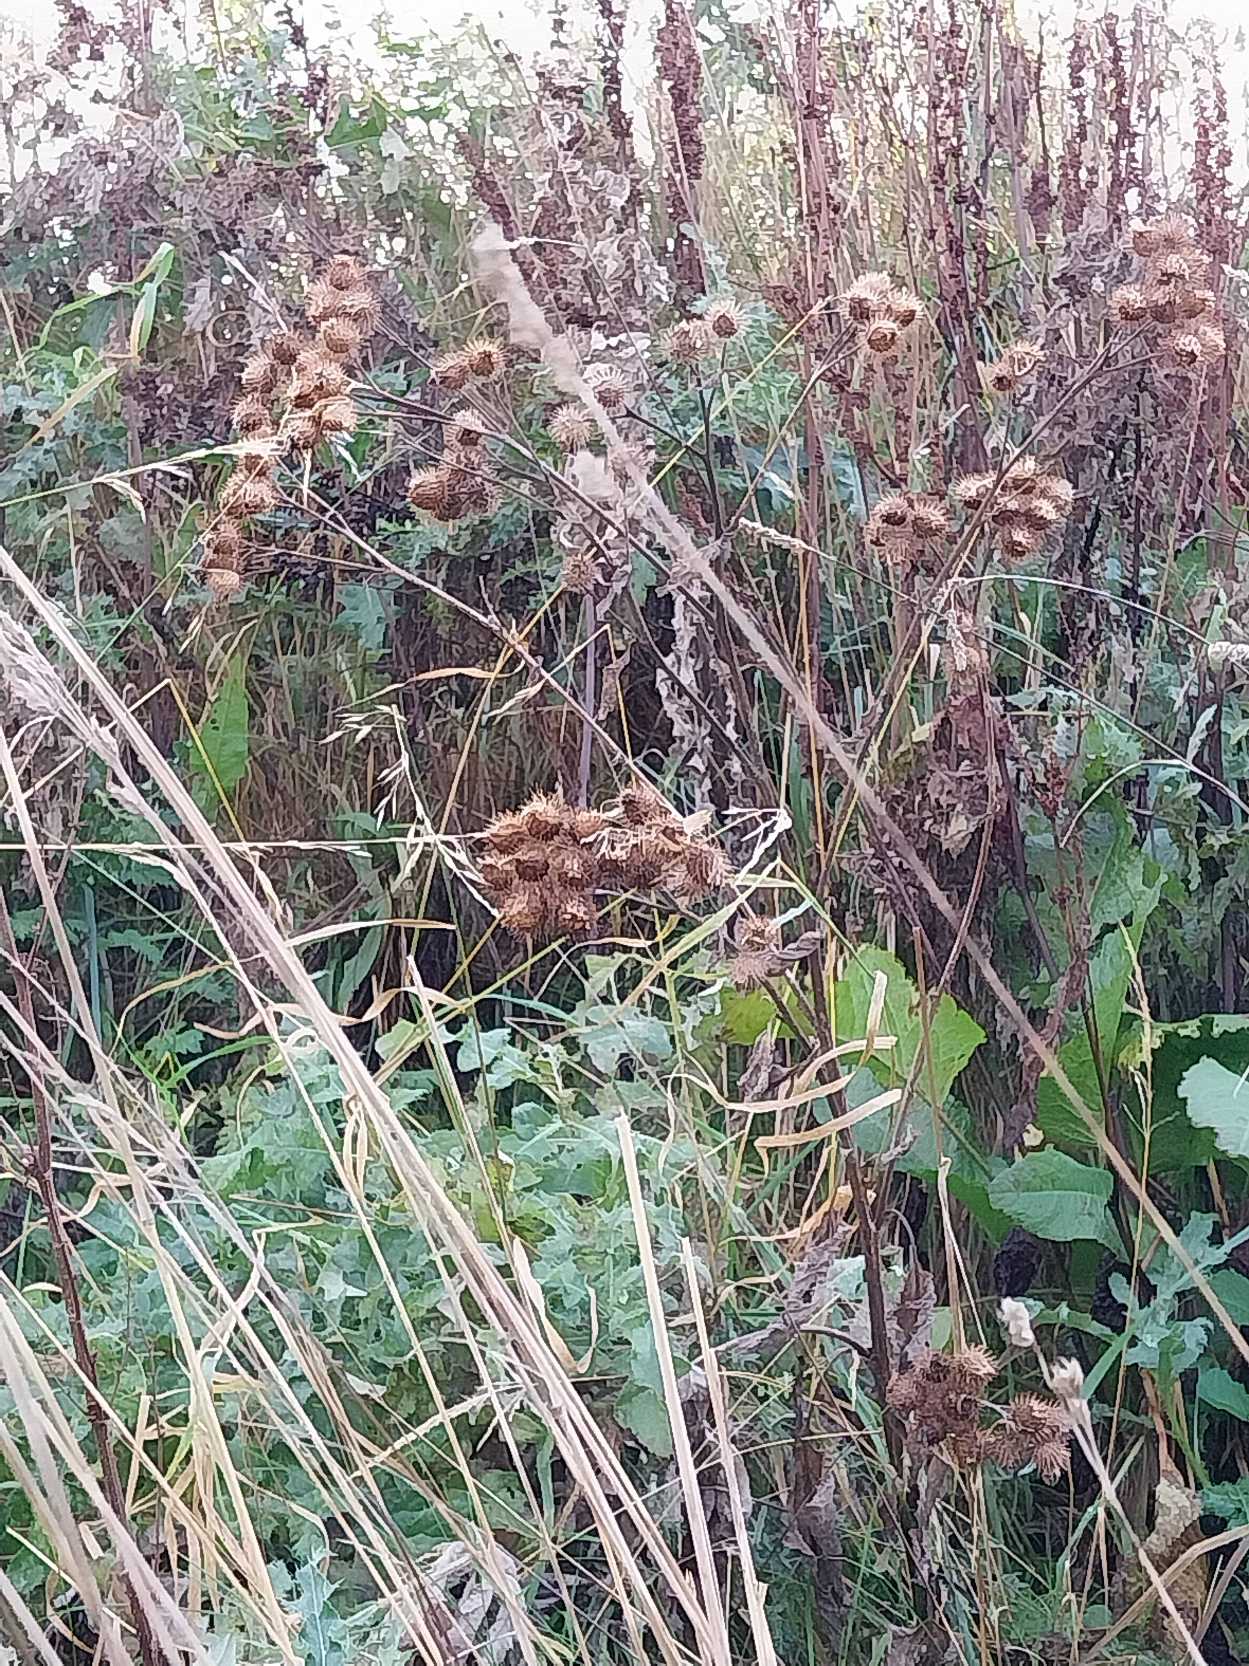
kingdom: Plantae
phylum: Tracheophyta
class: Magnoliopsida
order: Asterales
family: Asteraceae
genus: Arctium
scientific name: Arctium tomentosum
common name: Filtet burre
